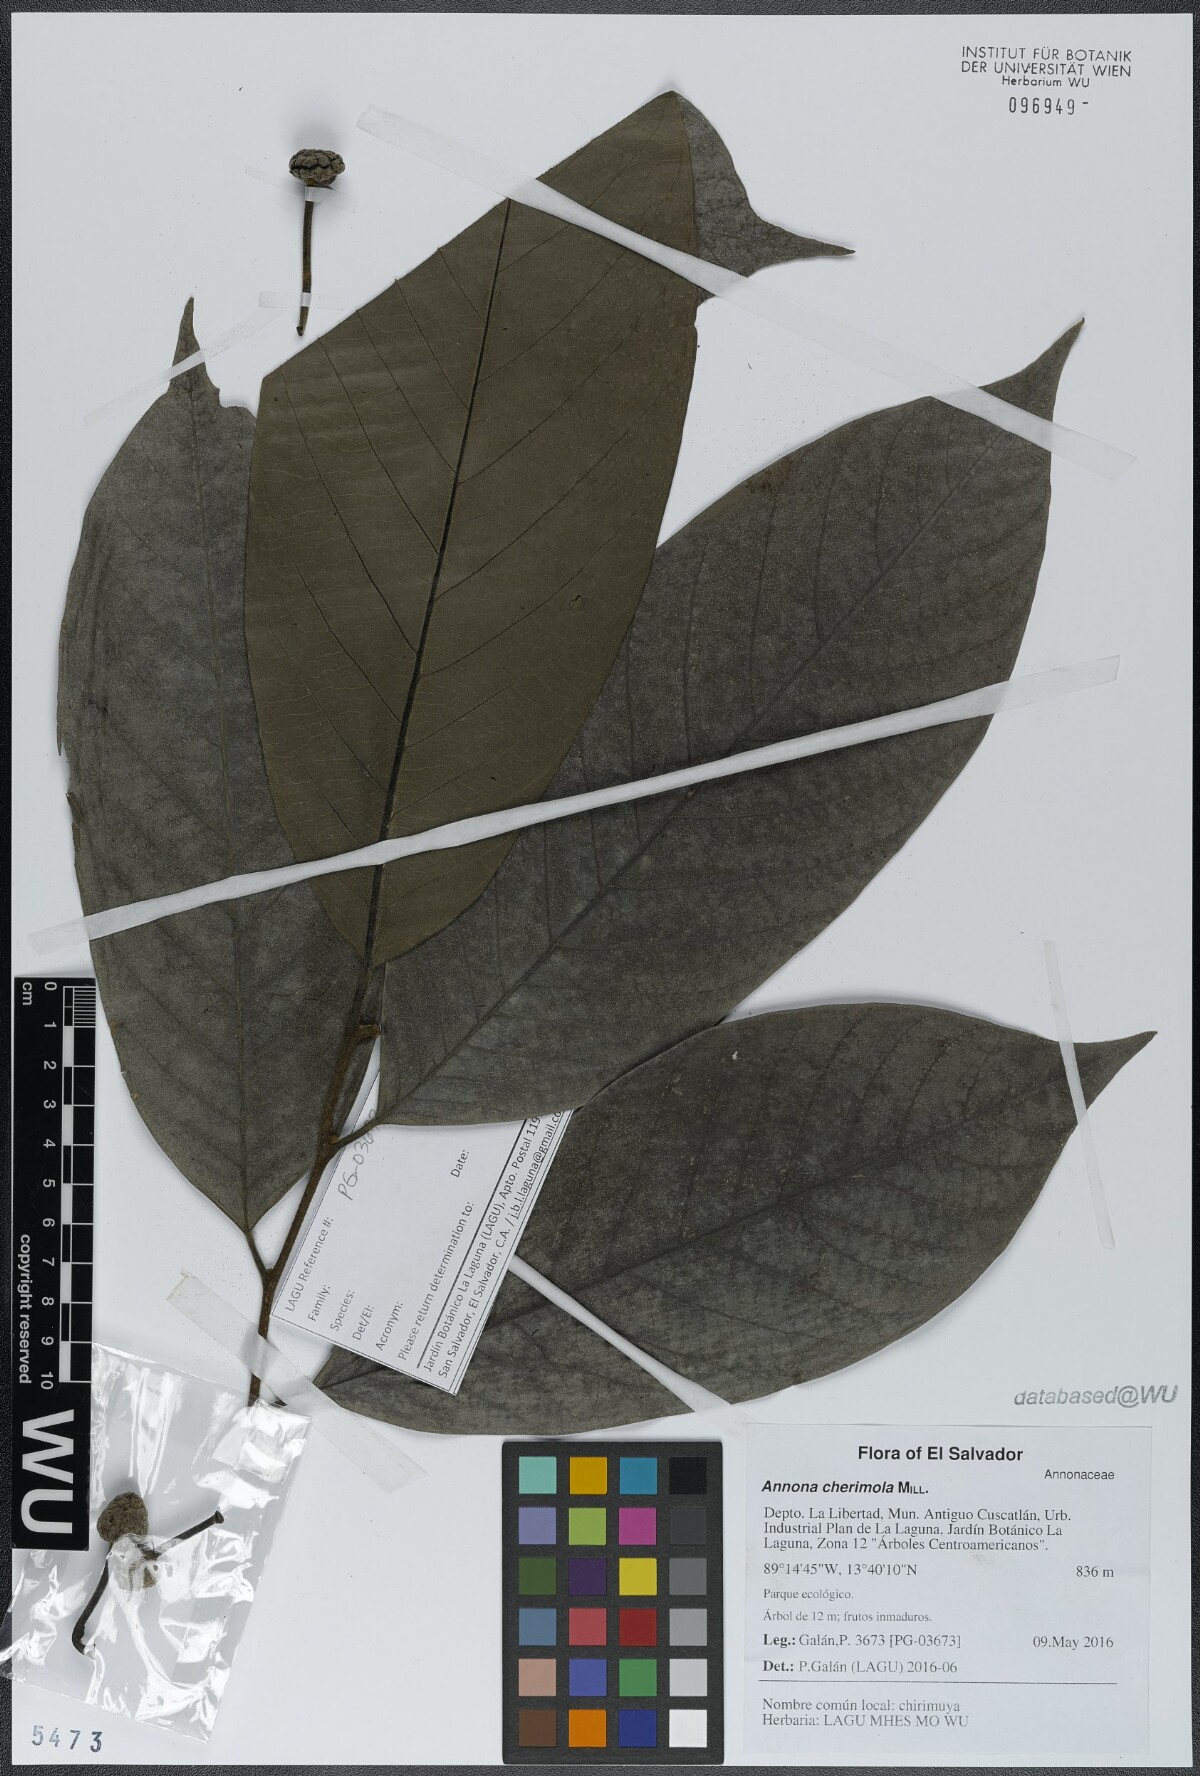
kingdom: Plantae
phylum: Tracheophyta
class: Magnoliopsida
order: Magnoliales
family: Annonaceae
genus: Annona
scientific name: Annona rensoniana
